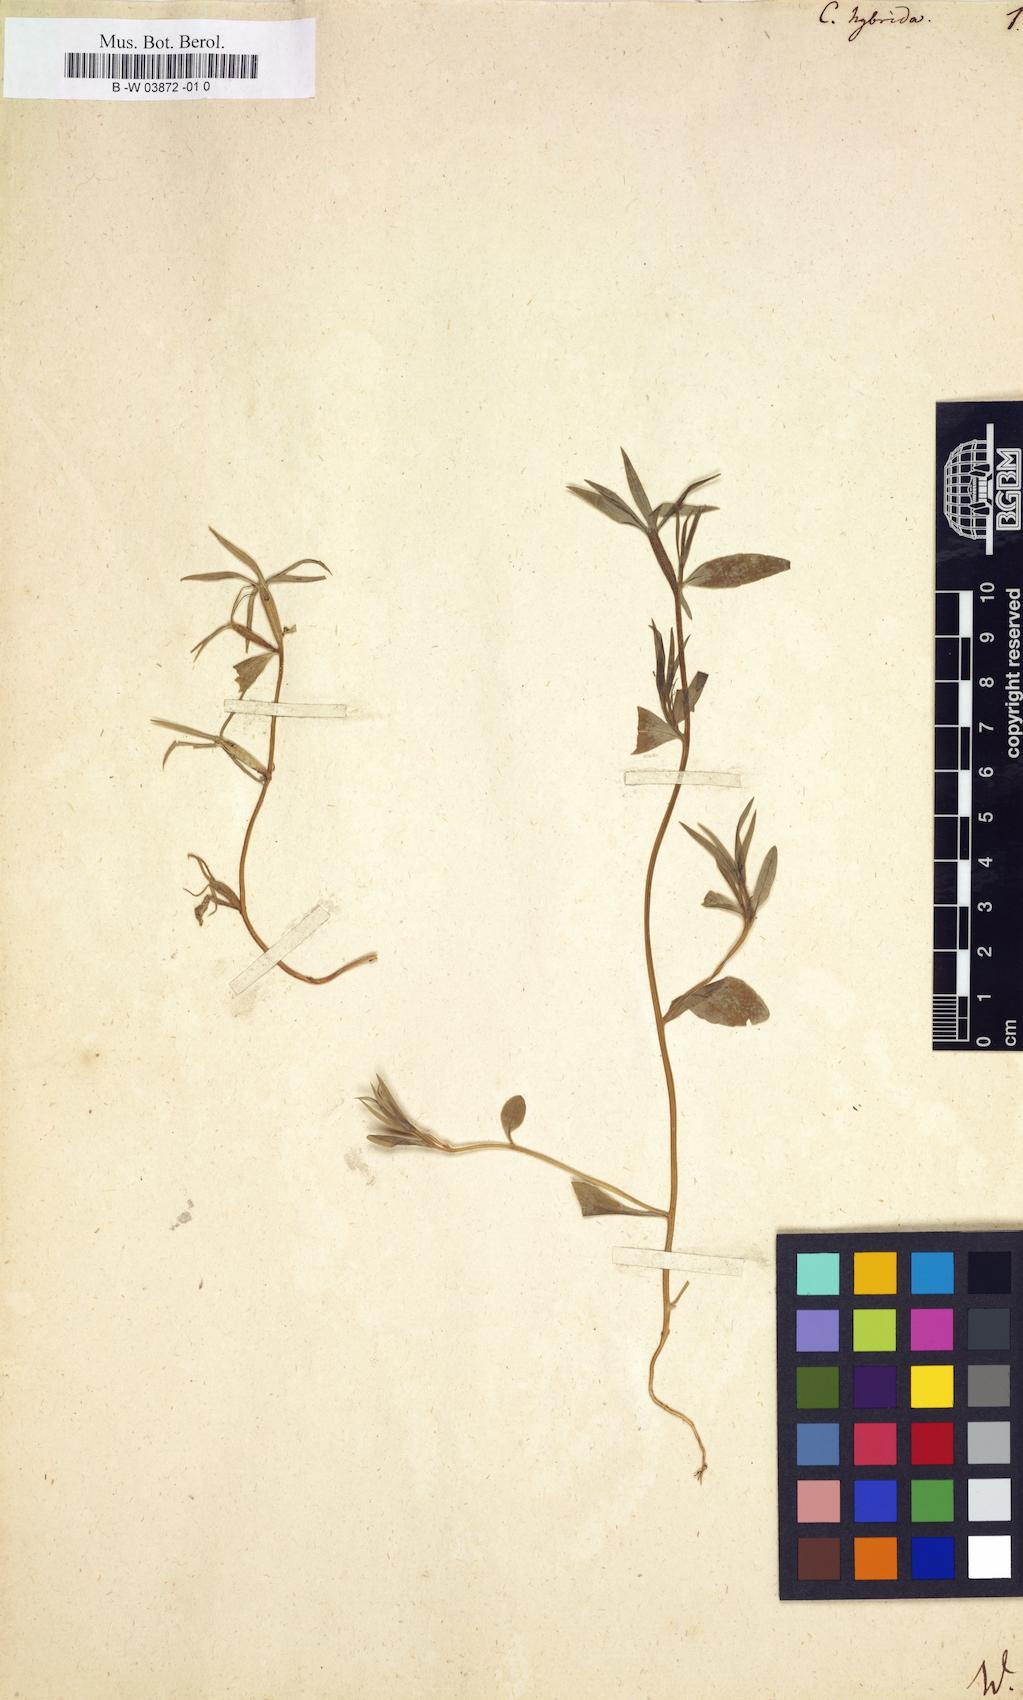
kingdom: Plantae
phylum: Tracheophyta
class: Magnoliopsida
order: Asterales
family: Campanulaceae
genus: Legousia
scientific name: Legousia hybrida
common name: Venus's-looking-glass
